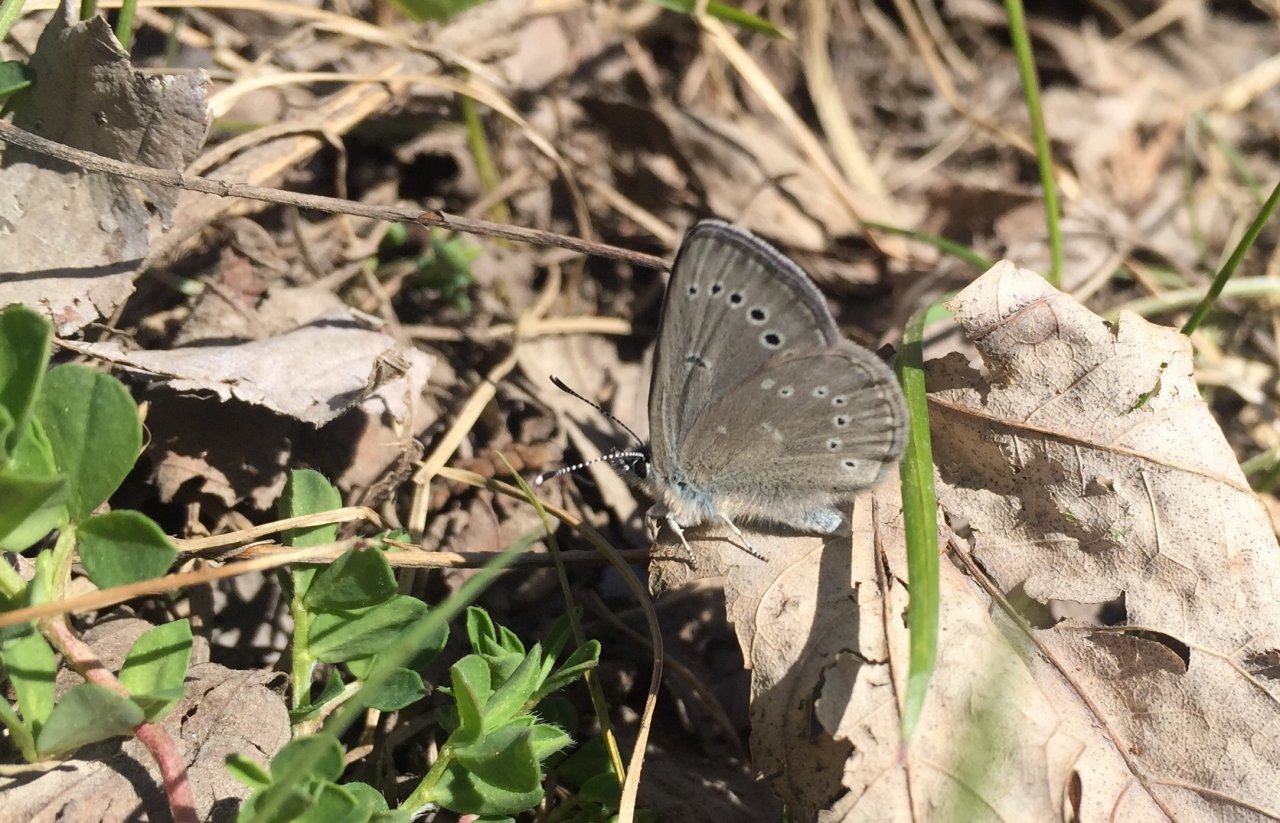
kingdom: Animalia
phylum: Arthropoda
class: Insecta
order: Lepidoptera
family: Lycaenidae
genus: Glaucopsyche
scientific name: Glaucopsyche lygdamus
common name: Silvery Blue
